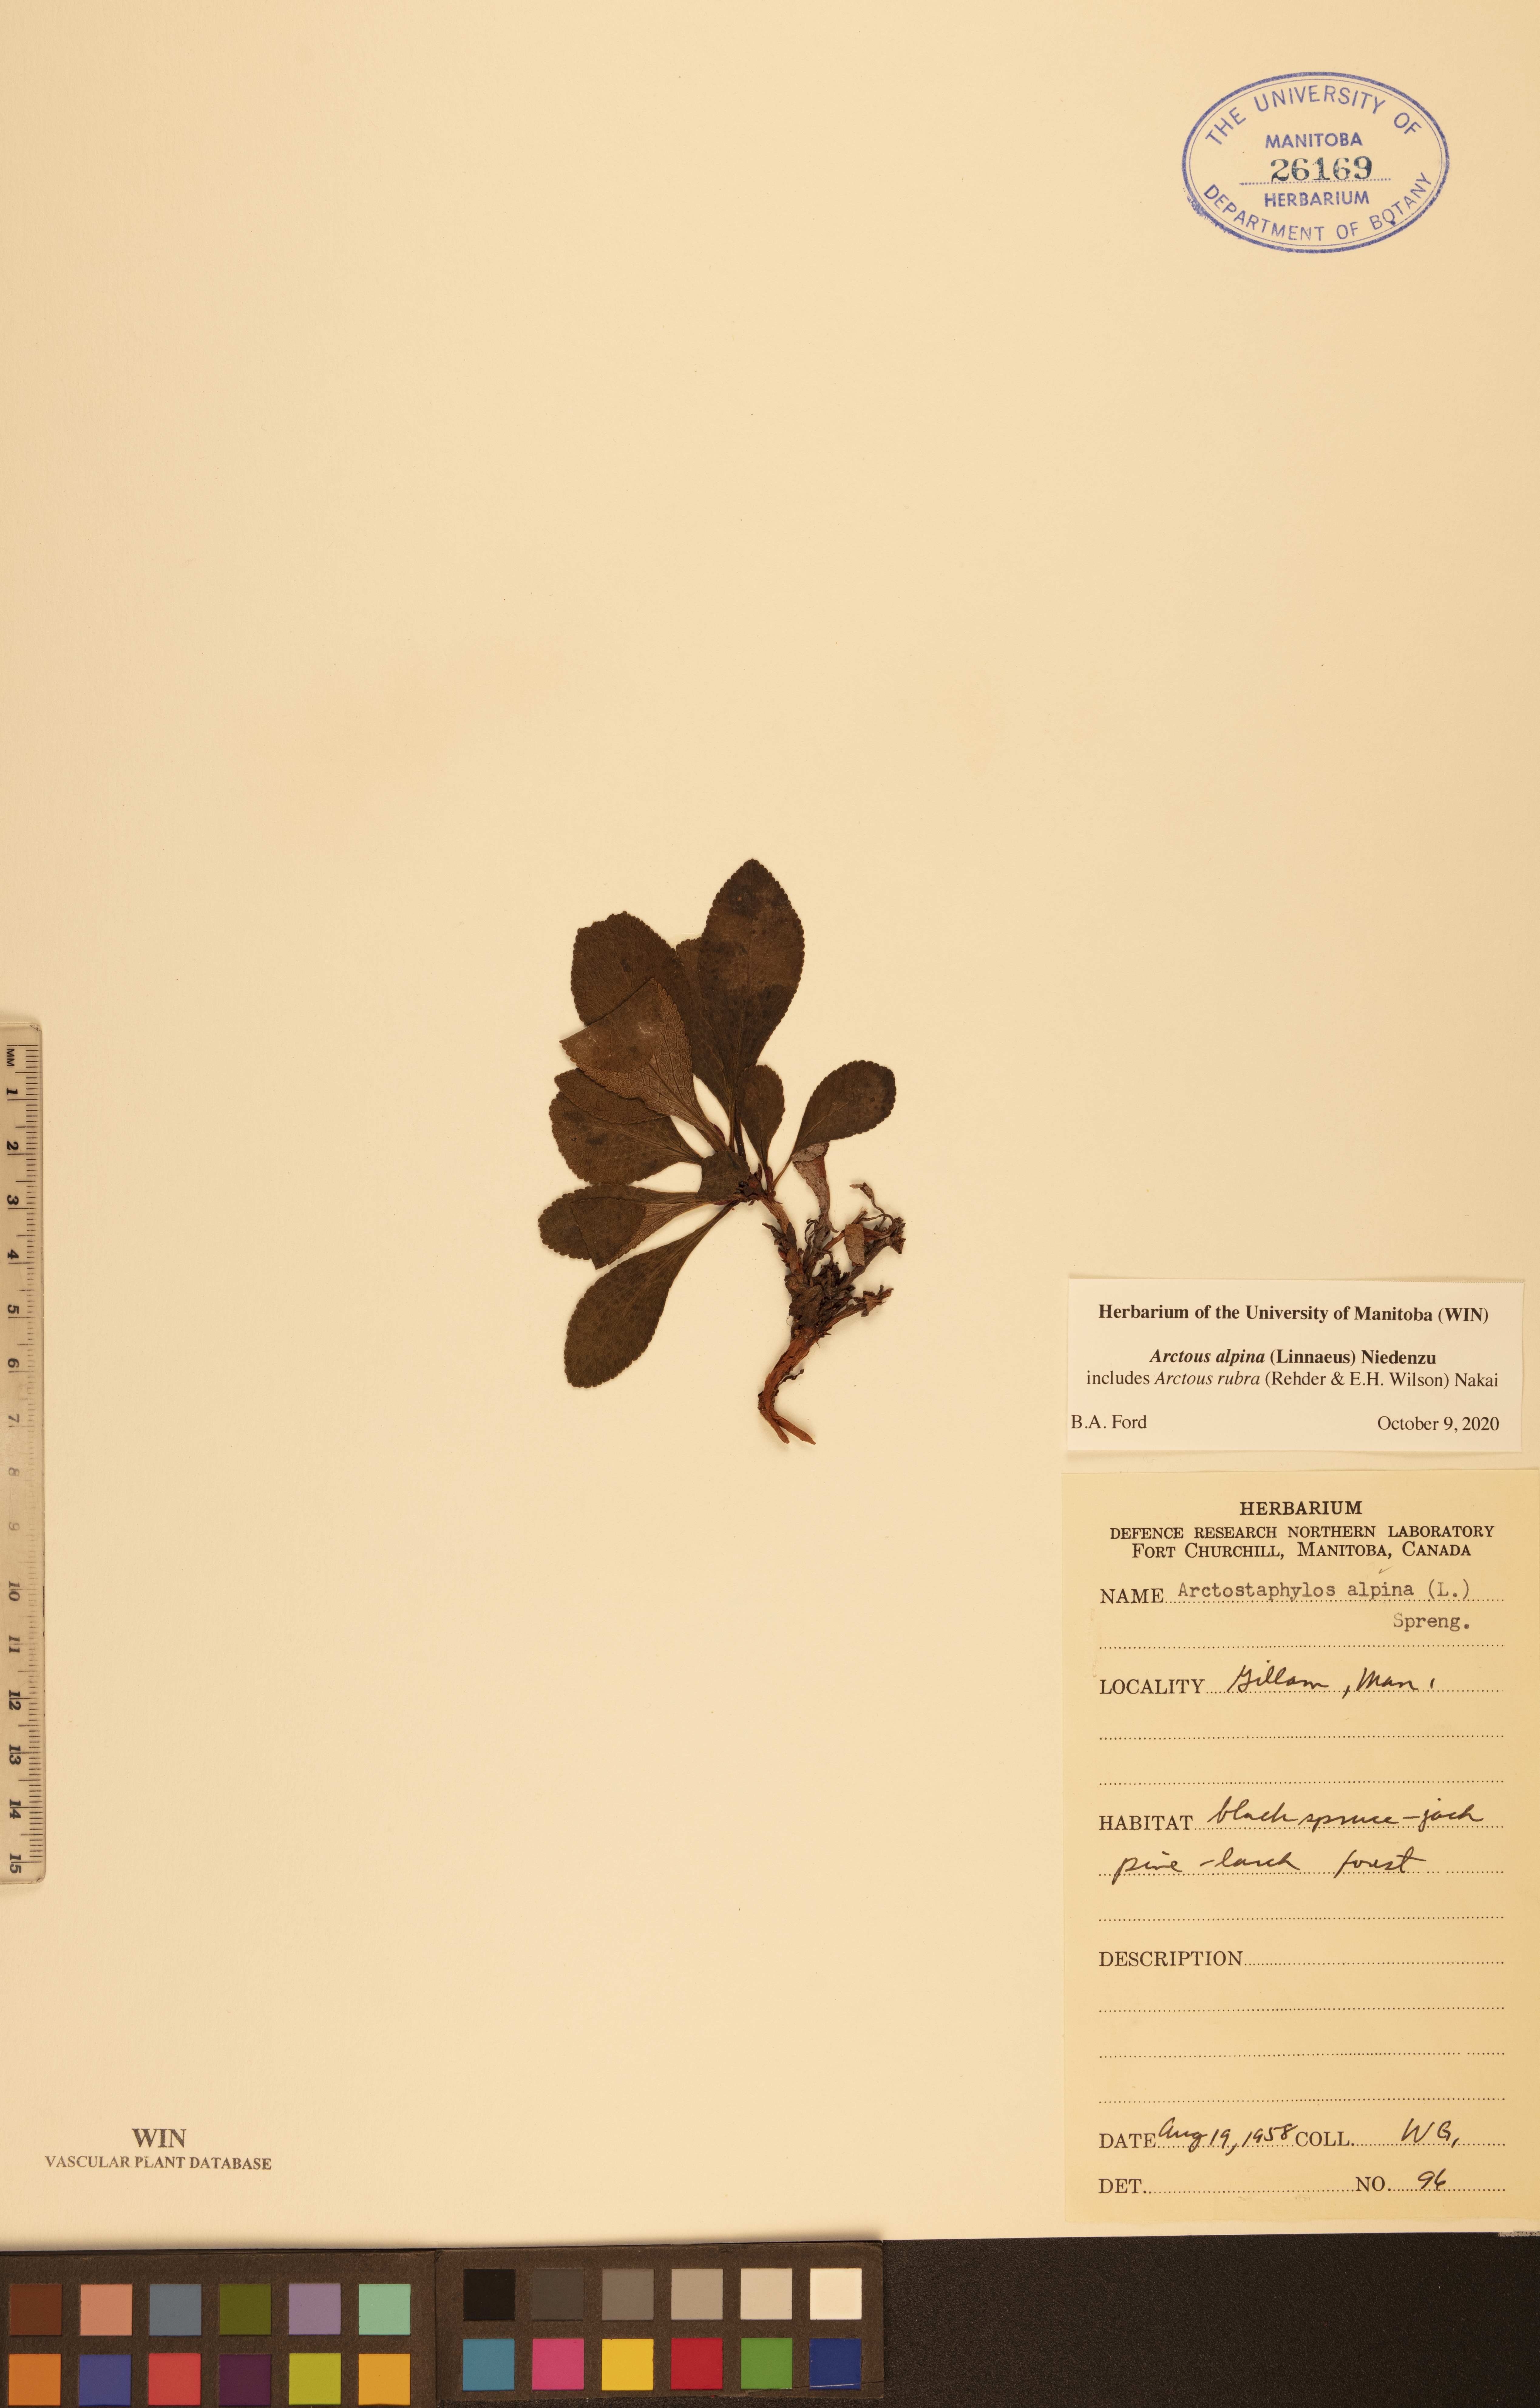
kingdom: Plantae
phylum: Tracheophyta
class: Magnoliopsida
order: Ericales
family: Ericaceae
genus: Arctostaphylos
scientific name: Arctostaphylos alpinus
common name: Alpine bearberry
